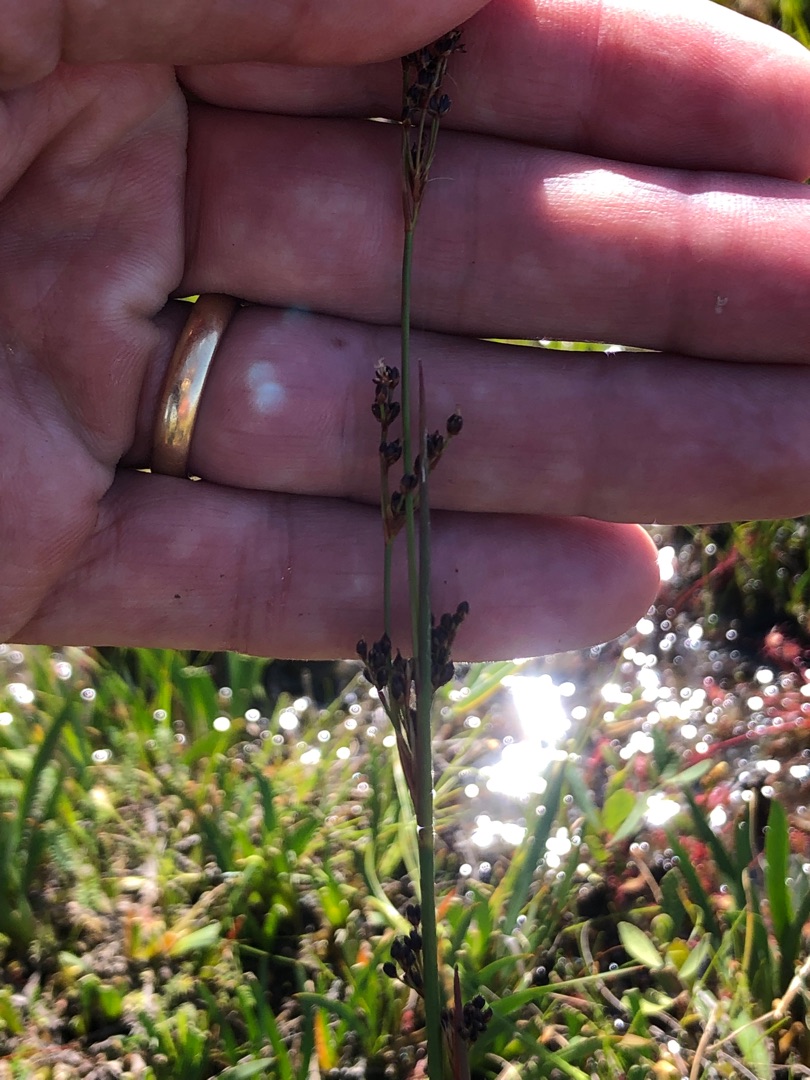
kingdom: Plantae
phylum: Tracheophyta
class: Liliopsida
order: Poales
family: Juncaceae
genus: Juncus
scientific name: Juncus anceps
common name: Sand-siv
